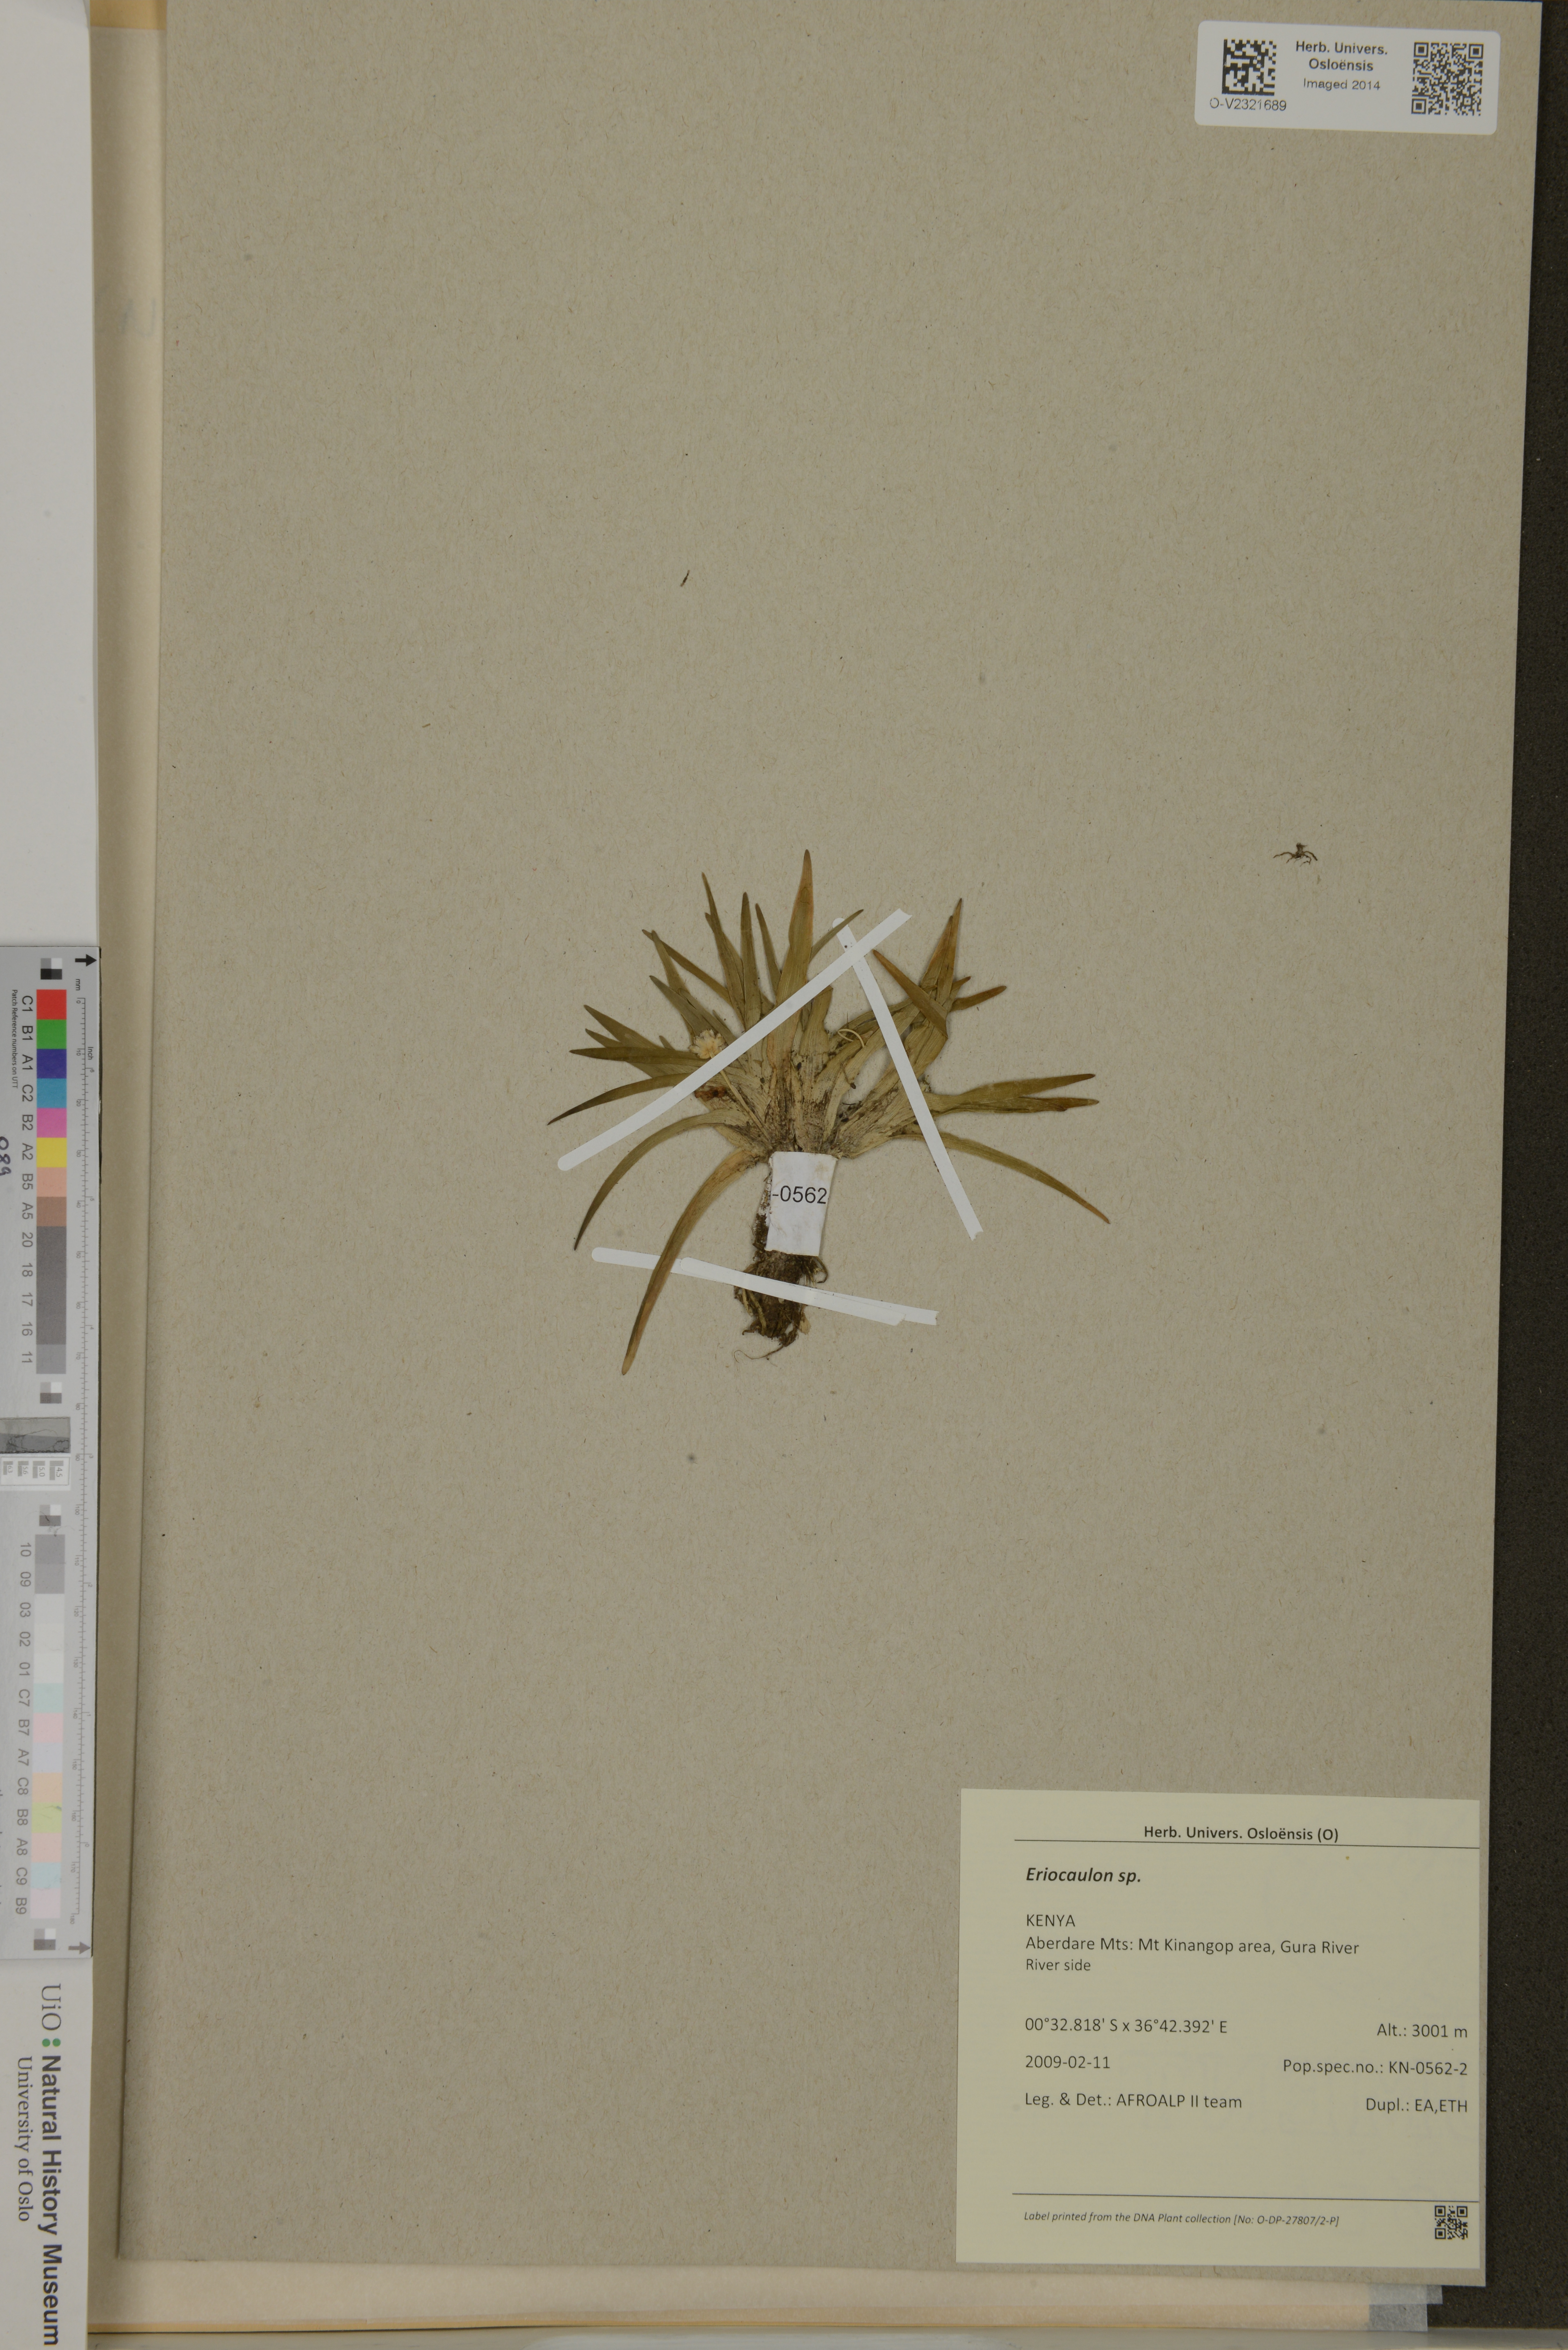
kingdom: Plantae
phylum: Tracheophyta
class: Liliopsida
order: Poales
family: Eriocaulaceae
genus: Eriocaulon
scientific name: Eriocaulon
